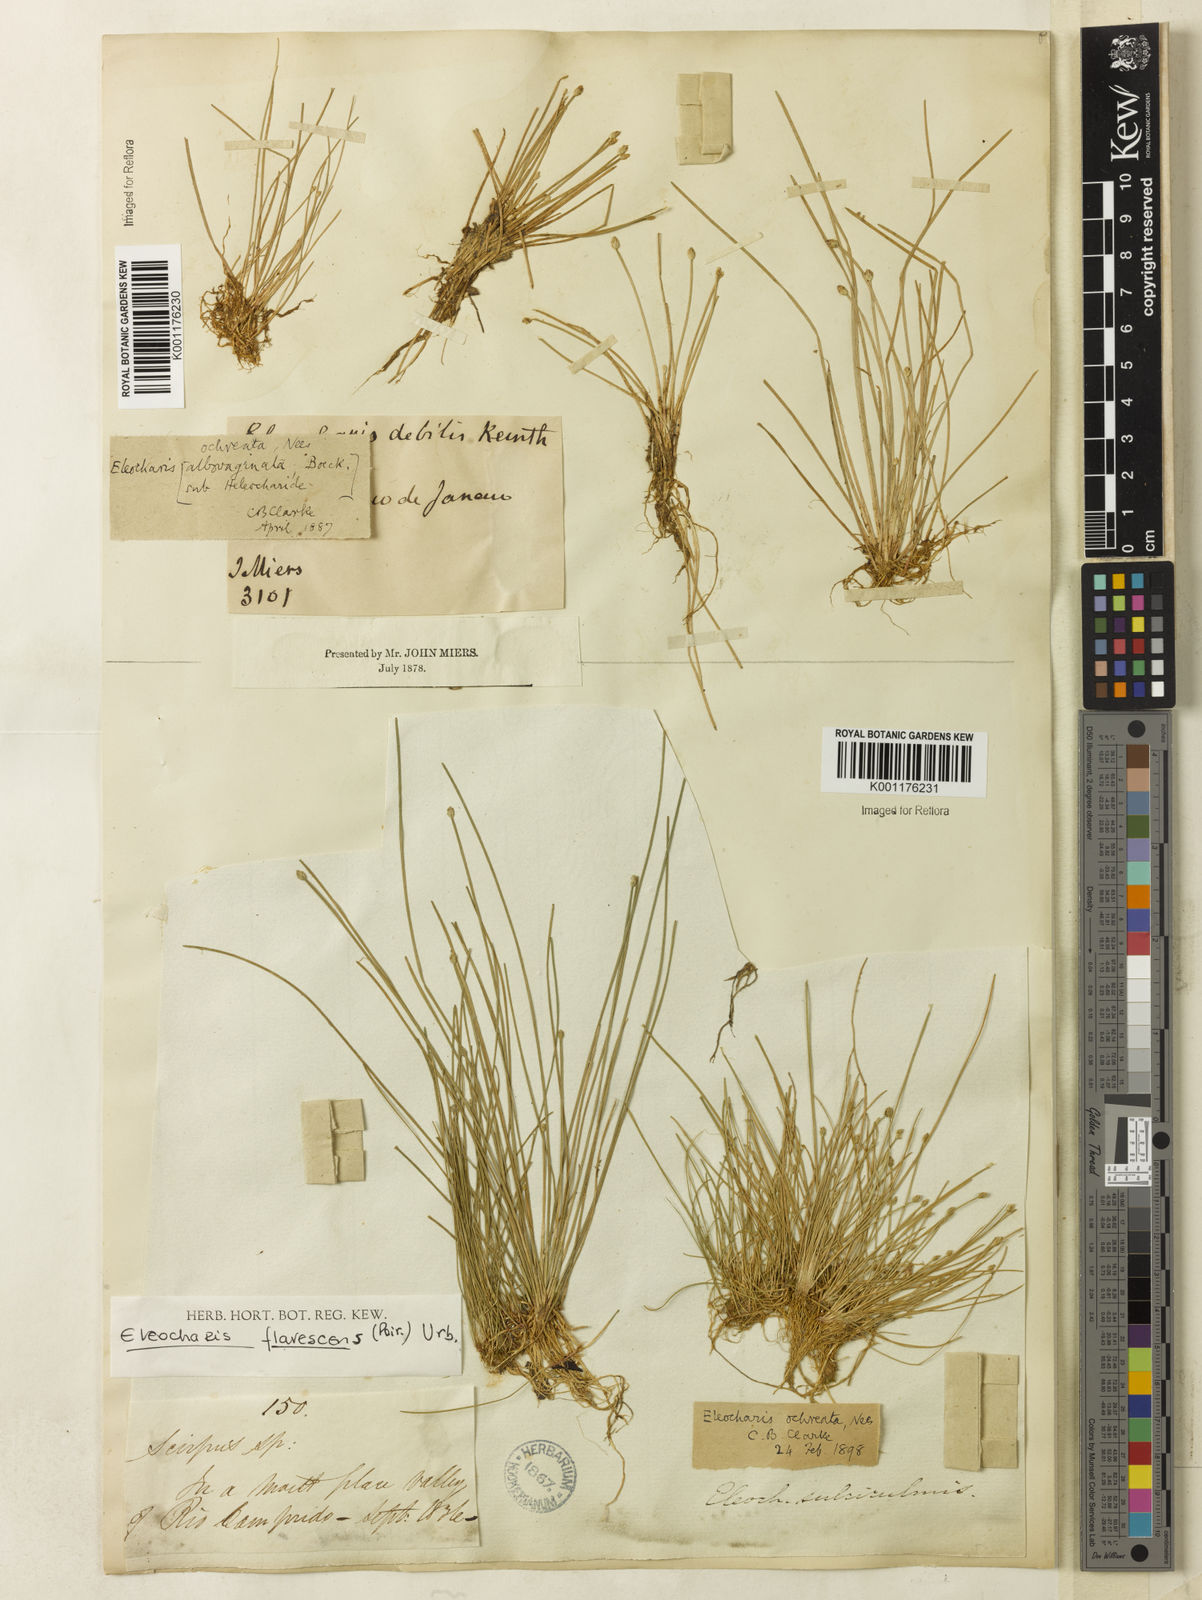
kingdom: Plantae
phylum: Tracheophyta
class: Liliopsida
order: Poales
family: Cyperaceae
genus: Eleocharis
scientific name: Eleocharis flavescens
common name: Yellow spikerush
